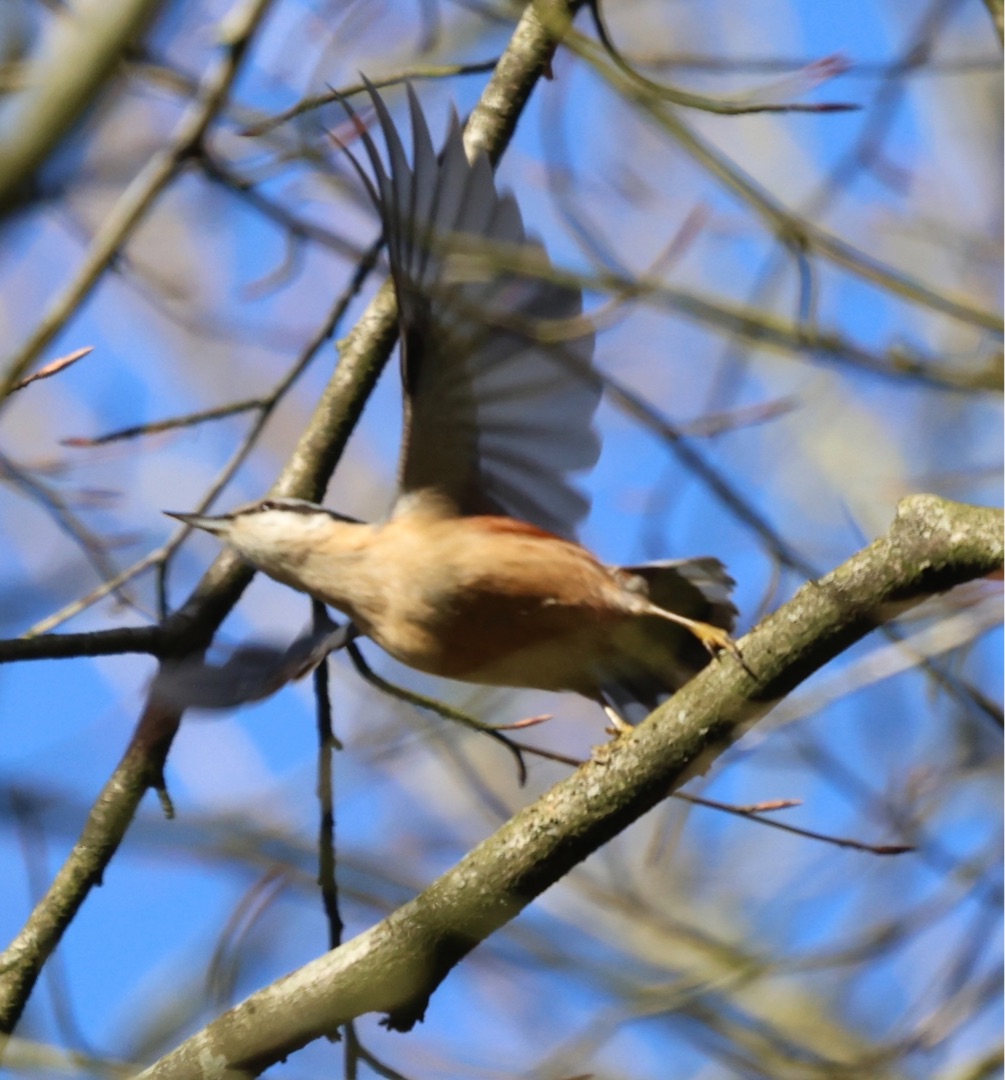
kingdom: Animalia
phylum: Chordata
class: Aves
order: Passeriformes
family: Sittidae
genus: Sitta
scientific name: Sitta europaea
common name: Spætmejse
